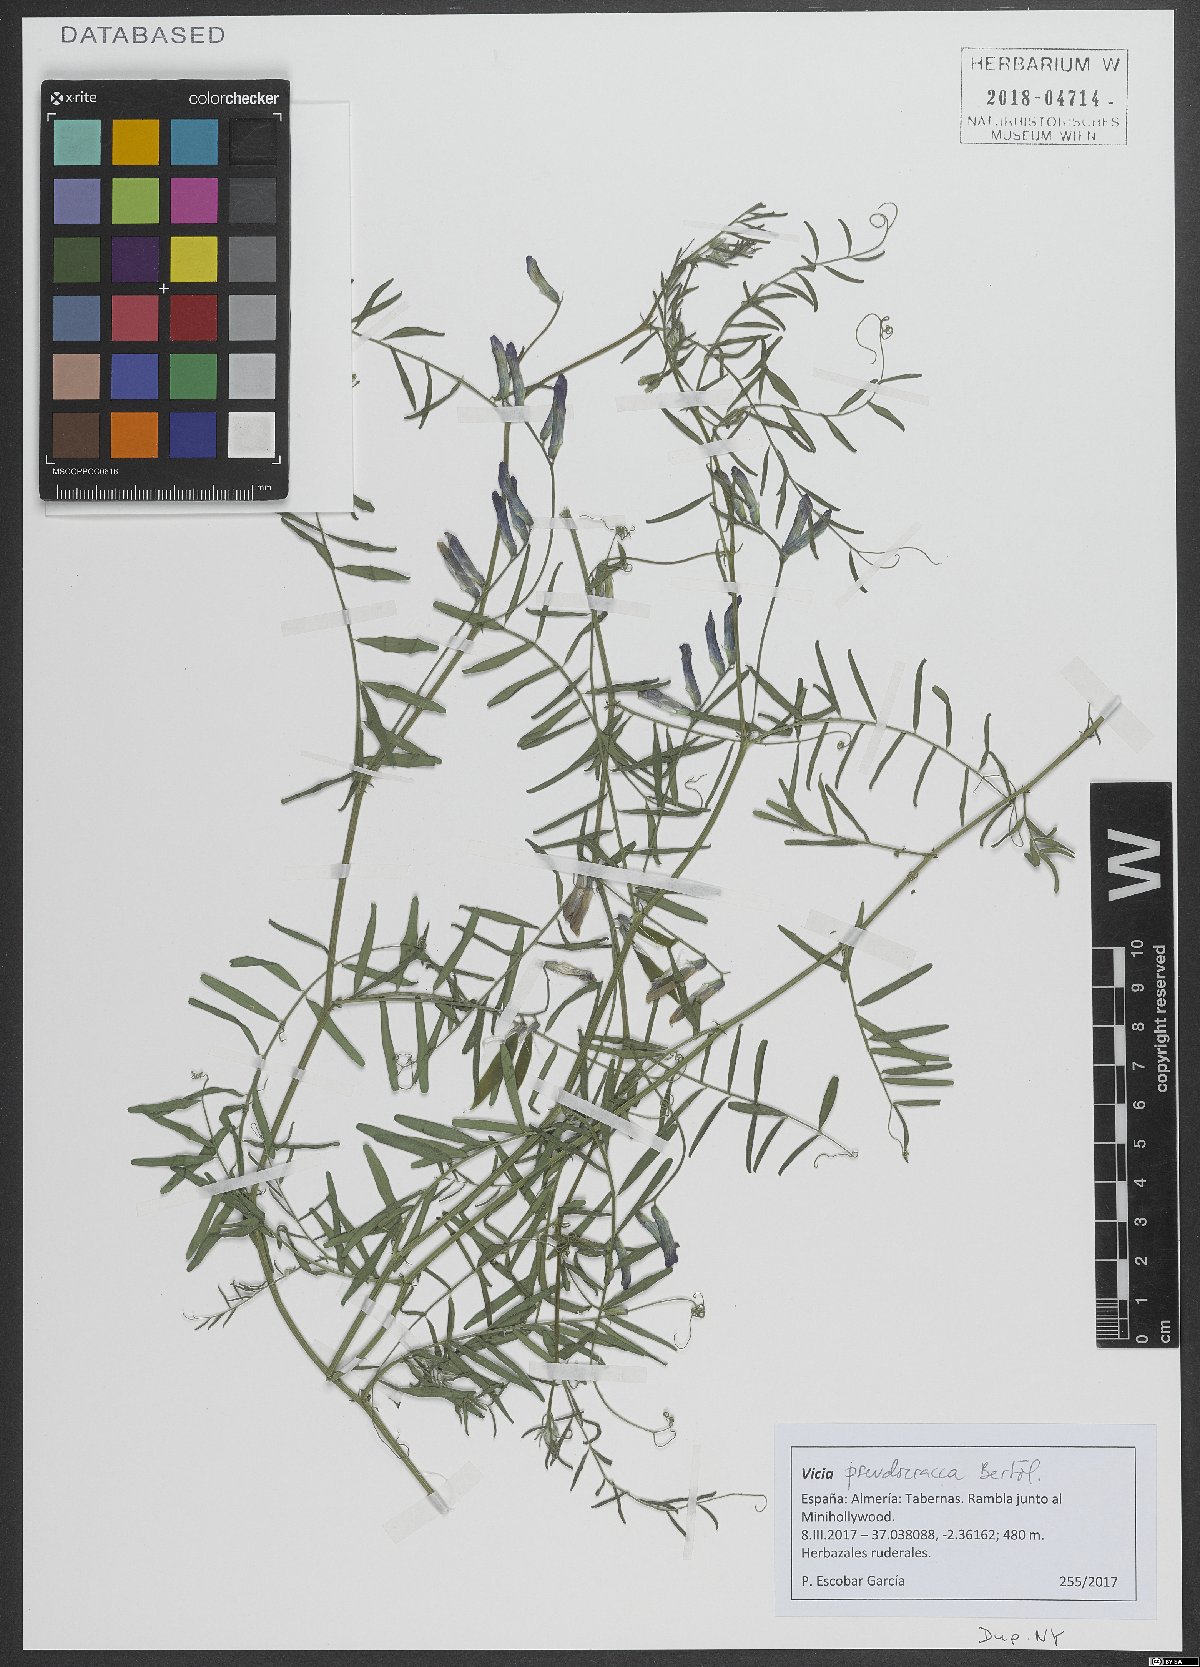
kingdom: Plantae
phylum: Tracheophyta
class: Magnoliopsida
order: Fabales
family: Fabaceae
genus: Vicia
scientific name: Vicia villosa
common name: Fodder vetch
